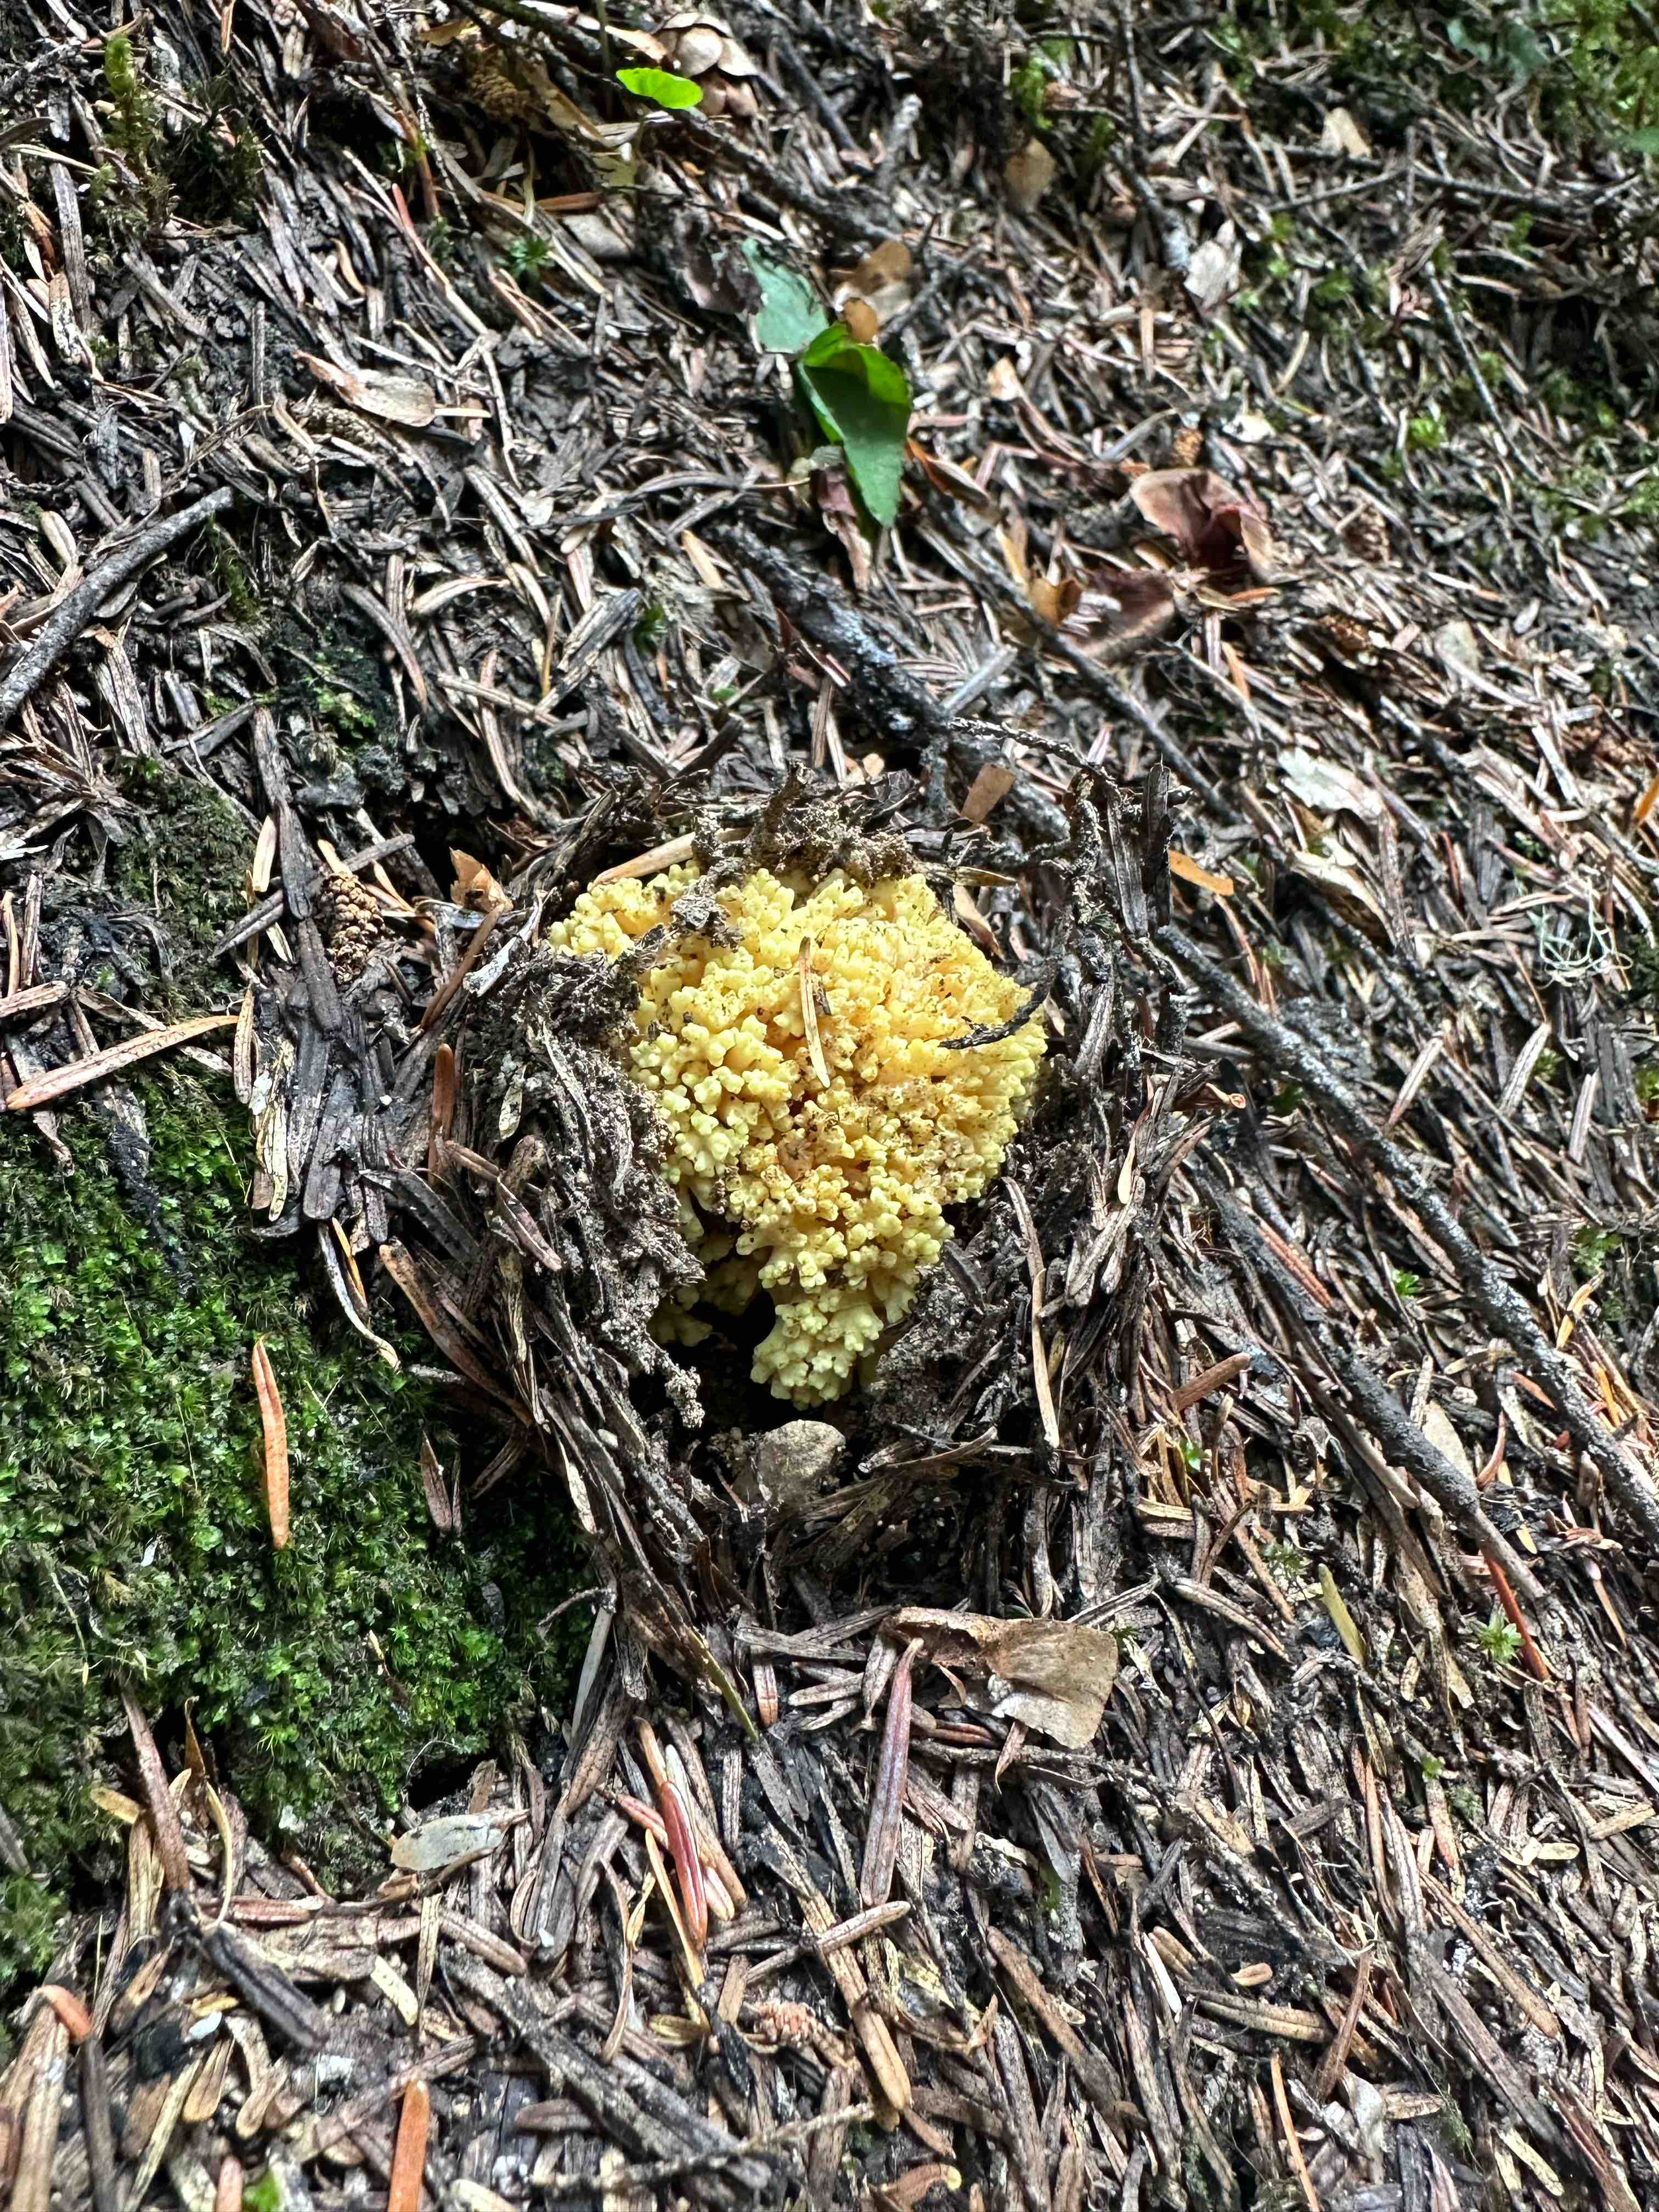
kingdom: Fungi
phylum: Basidiomycota
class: Agaricomycetes
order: Gomphales
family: Gomphaceae
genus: Ramaria
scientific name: Ramaria
